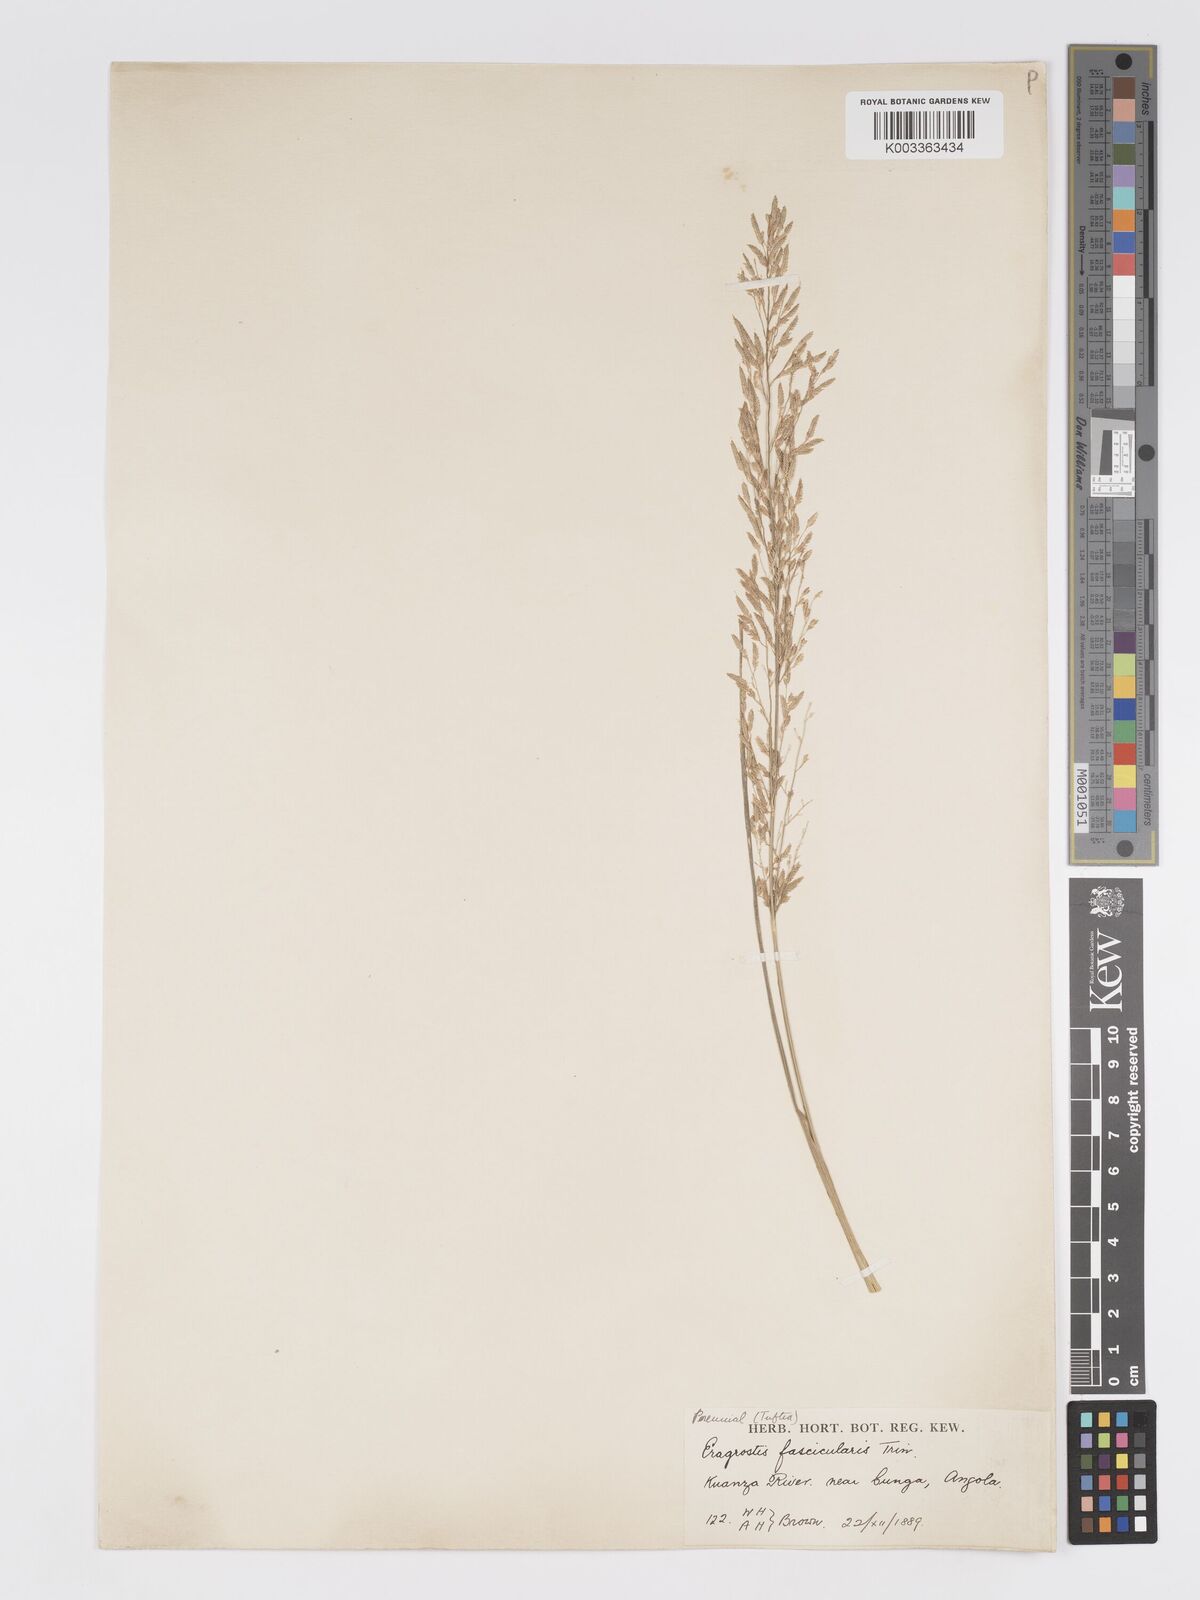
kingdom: Plantae
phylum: Tracheophyta
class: Liliopsida
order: Poales
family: Poaceae
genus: Eragrostis
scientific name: Eragrostis prolifera
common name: Dominican lovegrass
